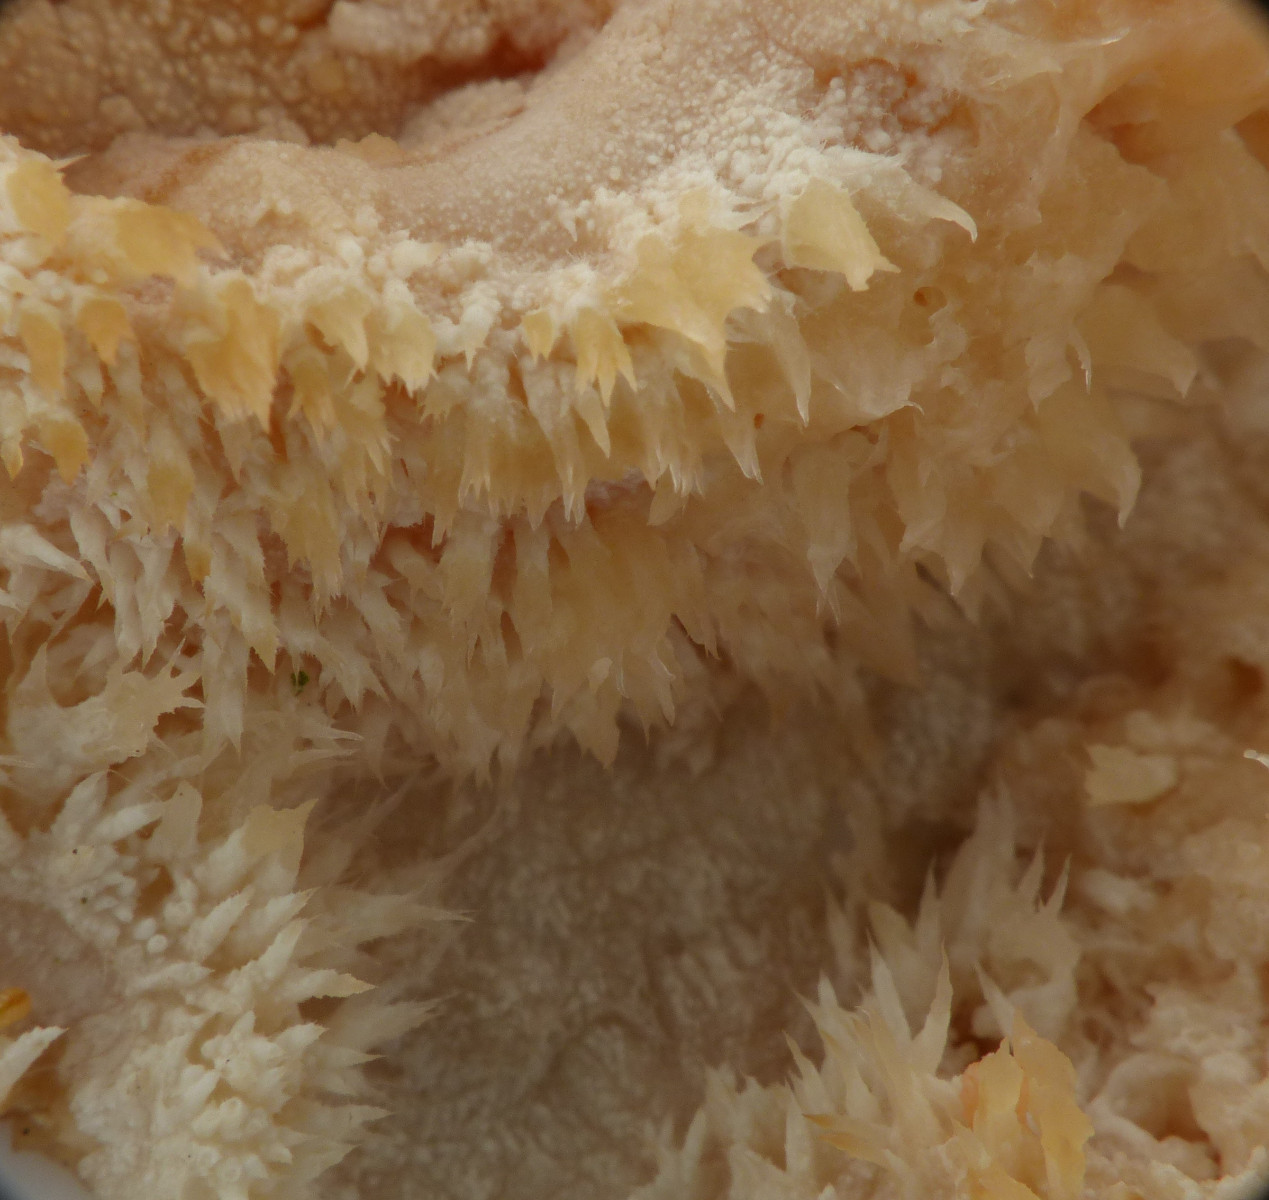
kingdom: Fungi
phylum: Basidiomycota
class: Agaricomycetes
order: Polyporales
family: Hyphodermataceae
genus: Hyphoderma
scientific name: Hyphoderma setigerum
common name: håret kalkskind
